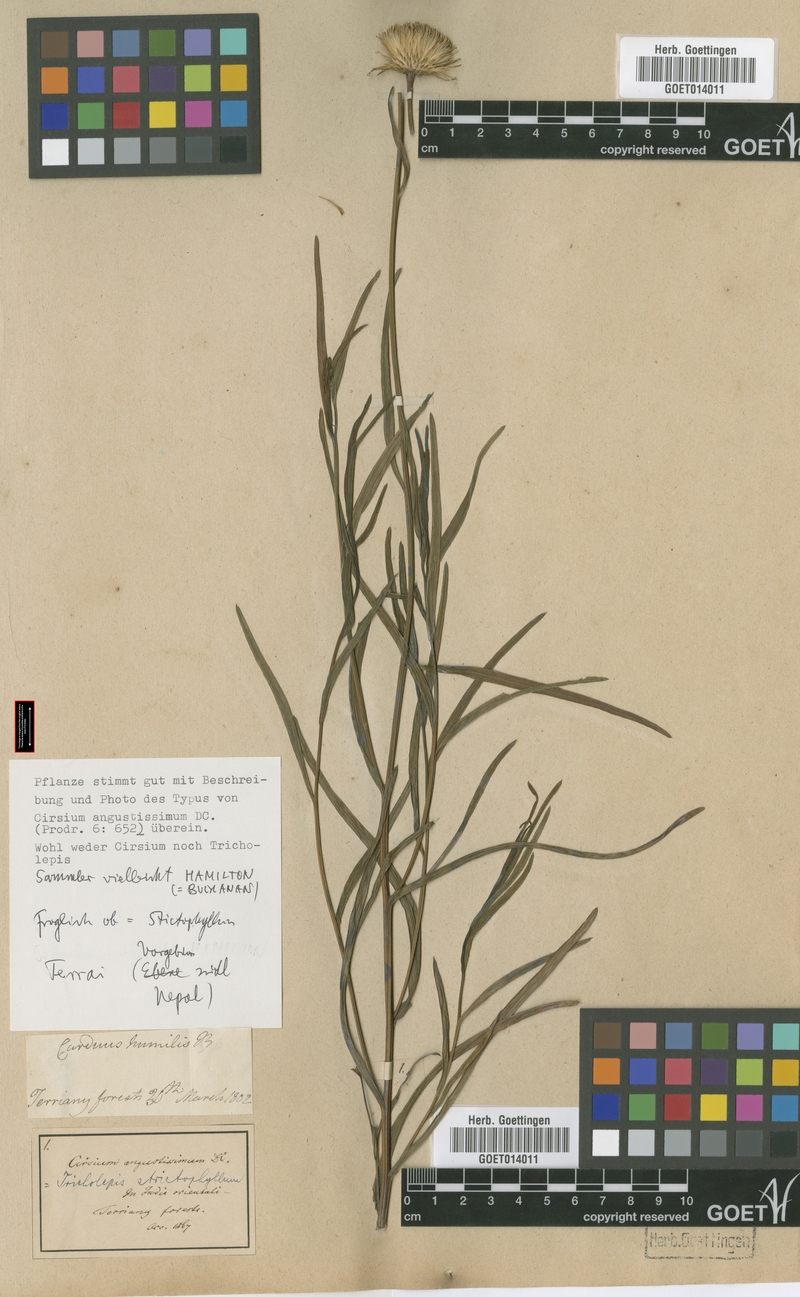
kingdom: Plantae
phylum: Tracheophyta
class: Magnoliopsida
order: Asterales
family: Asteraceae
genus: Tricholepis
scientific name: Tricholepis stictophyllum
